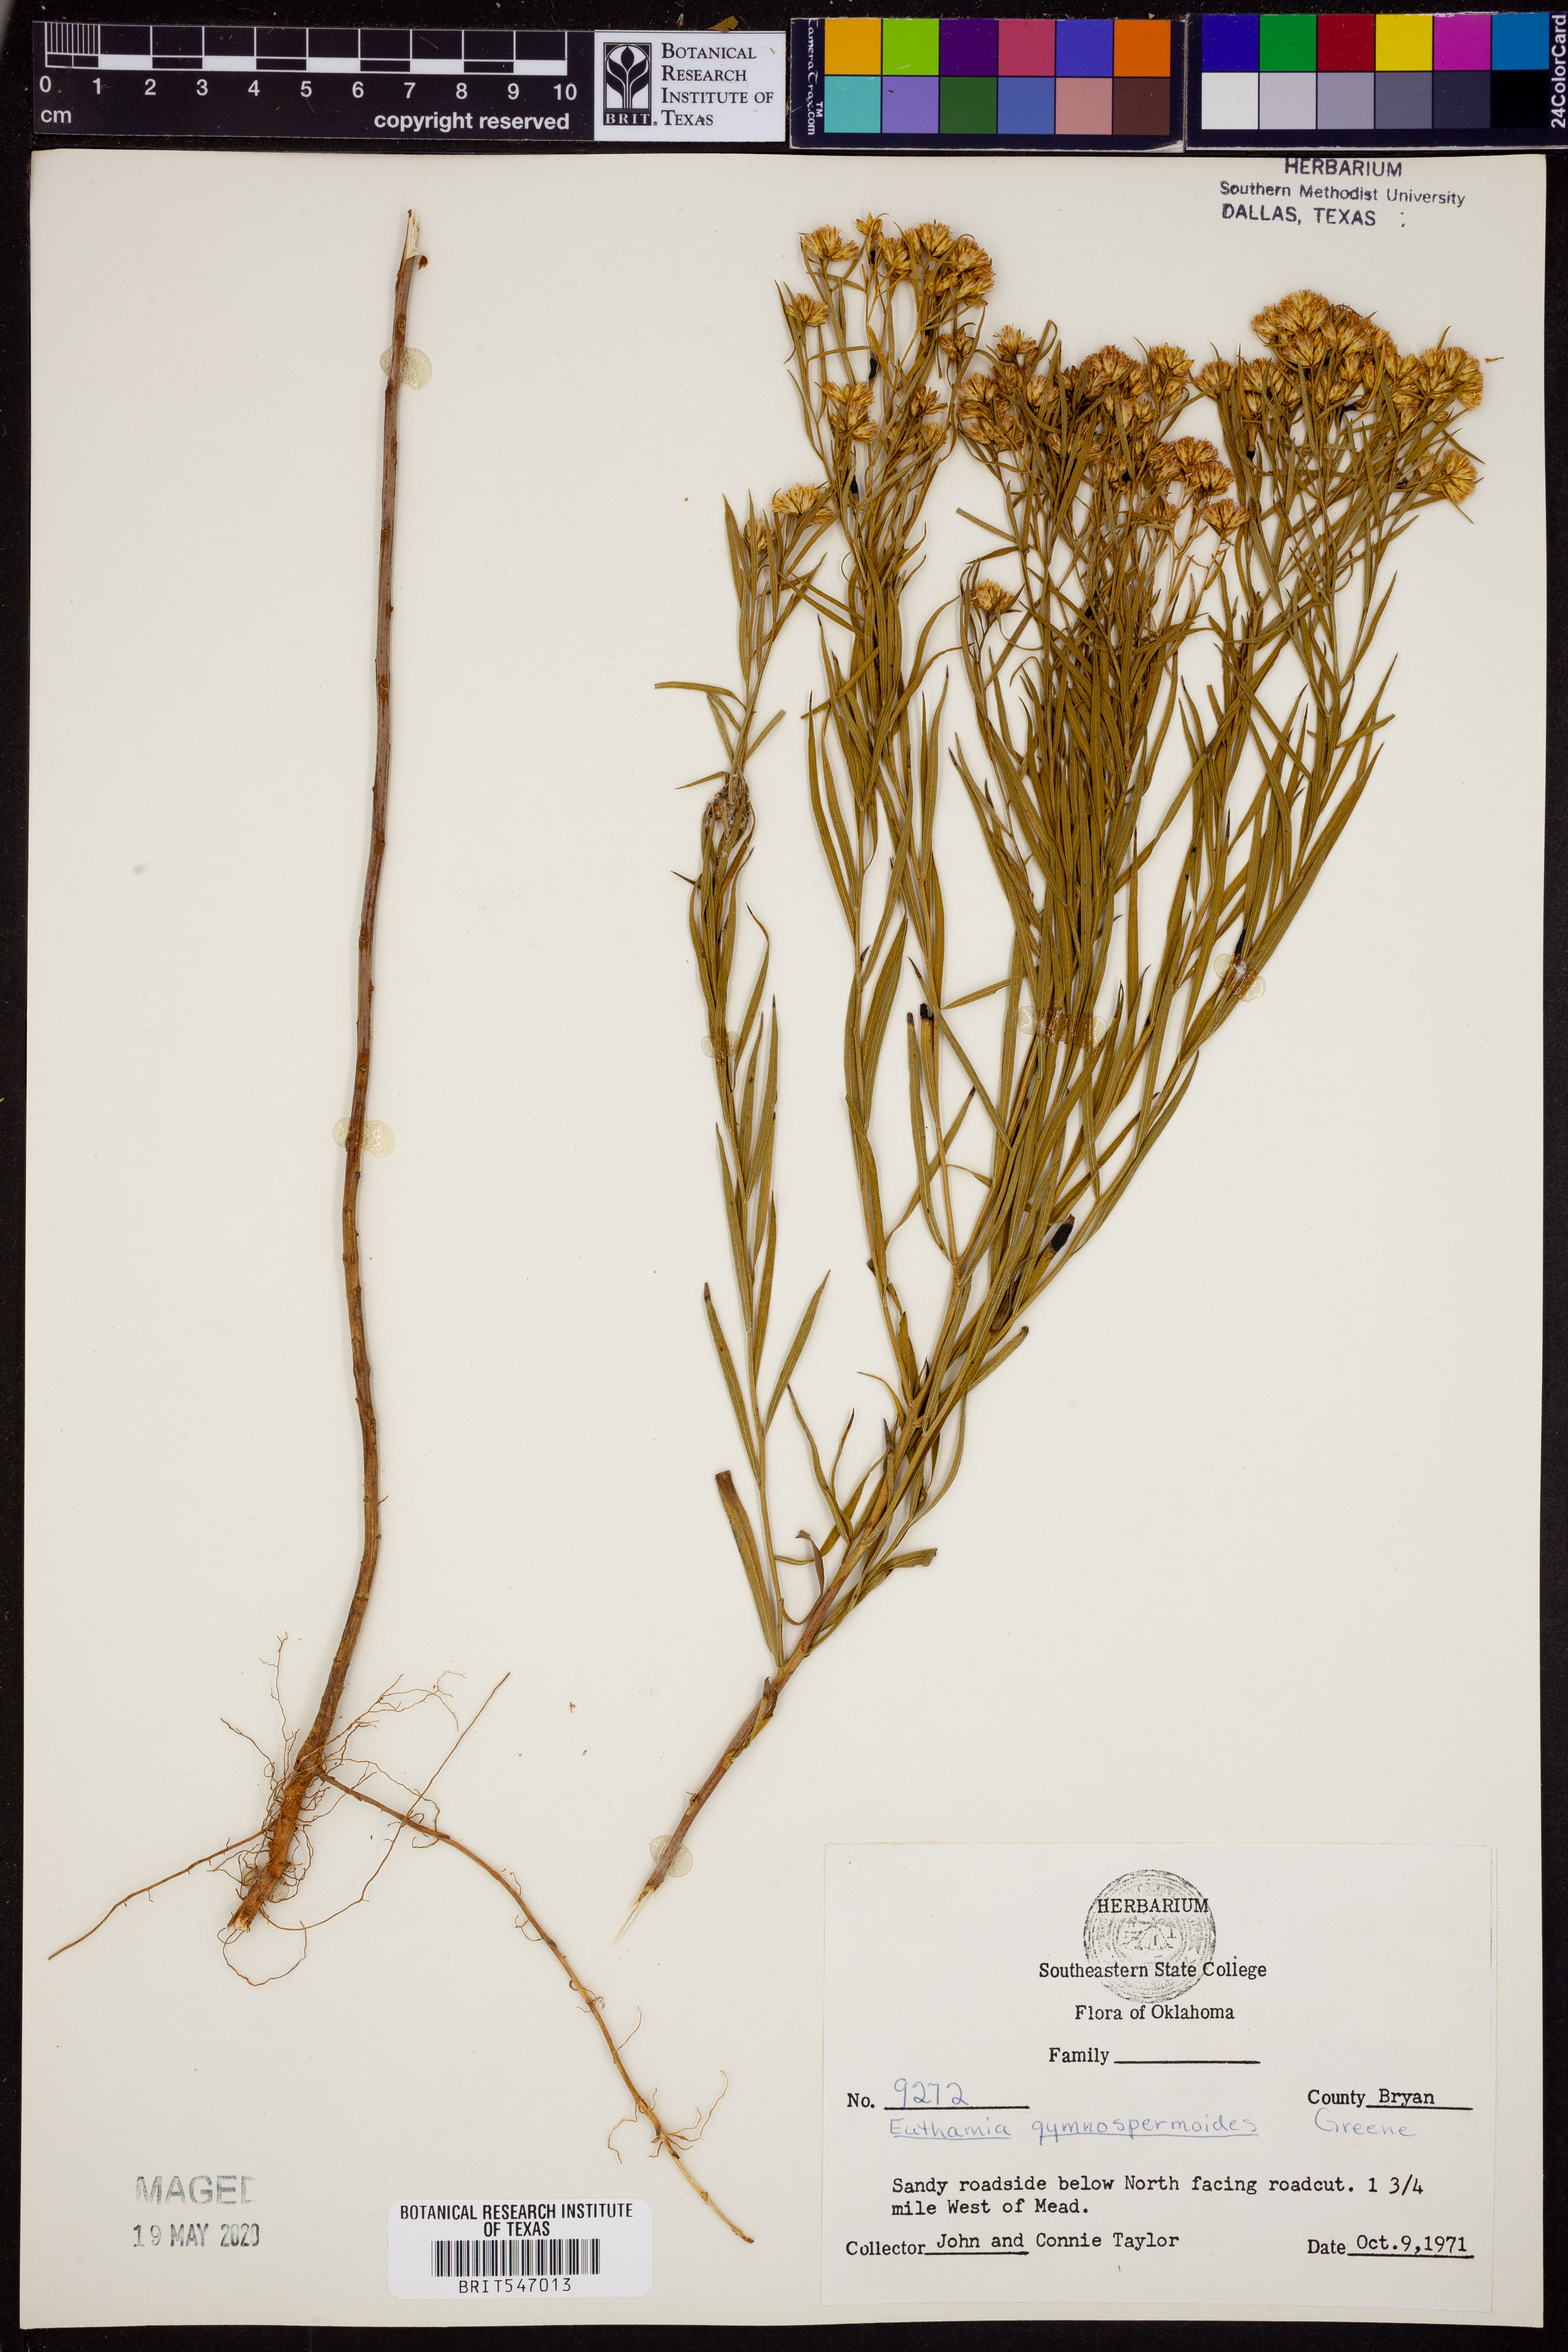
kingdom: Plantae
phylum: Tracheophyta
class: Magnoliopsida
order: Asterales
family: Asteraceae
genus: Euthamia
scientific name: Euthamia gymnospermoides
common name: Great plains goldentop
